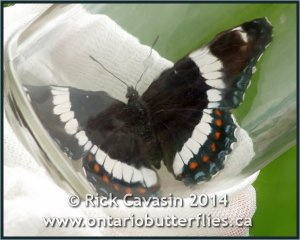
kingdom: Animalia
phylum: Arthropoda
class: Insecta
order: Lepidoptera
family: Nymphalidae
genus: Limenitis
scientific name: Limenitis arthemis
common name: Red-spotted Admiral
